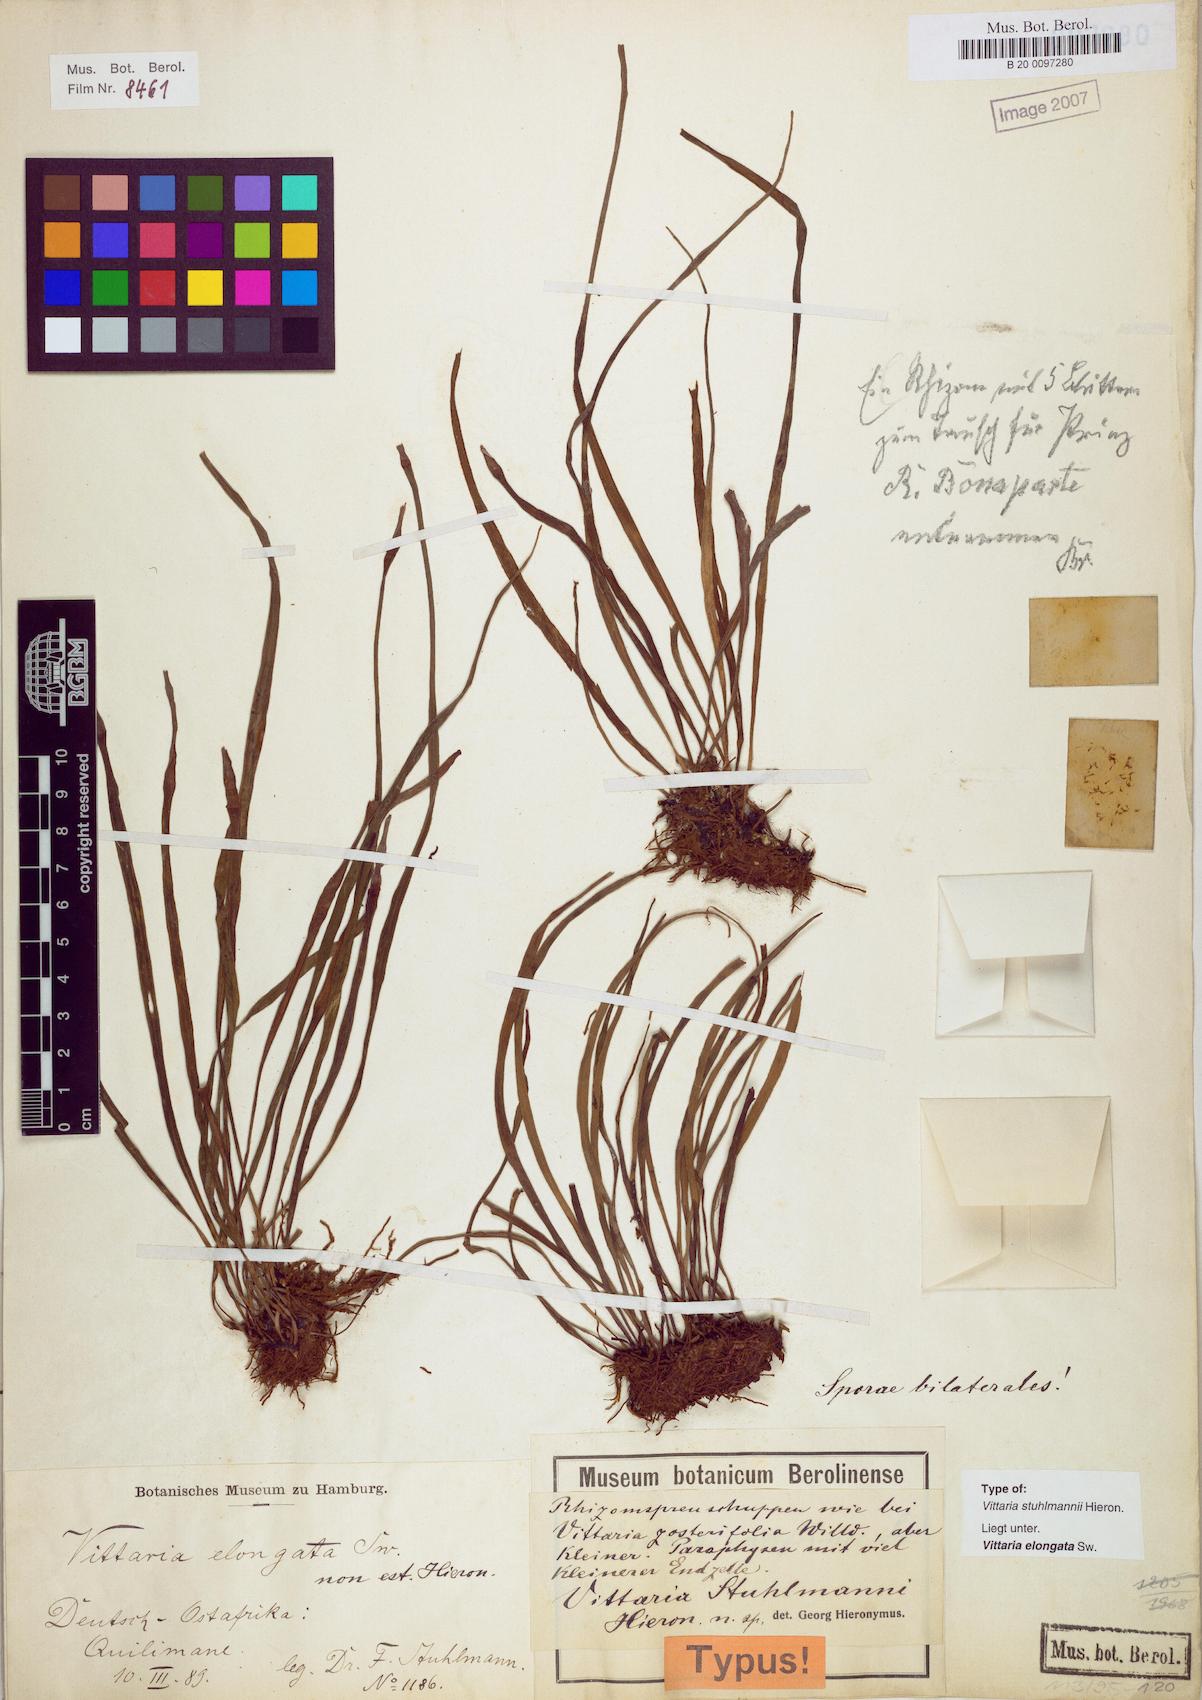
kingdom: Plantae
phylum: Tracheophyta
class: Polypodiopsida
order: Polypodiales
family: Pteridaceae
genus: Haplopteris
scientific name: Haplopteris elongata
